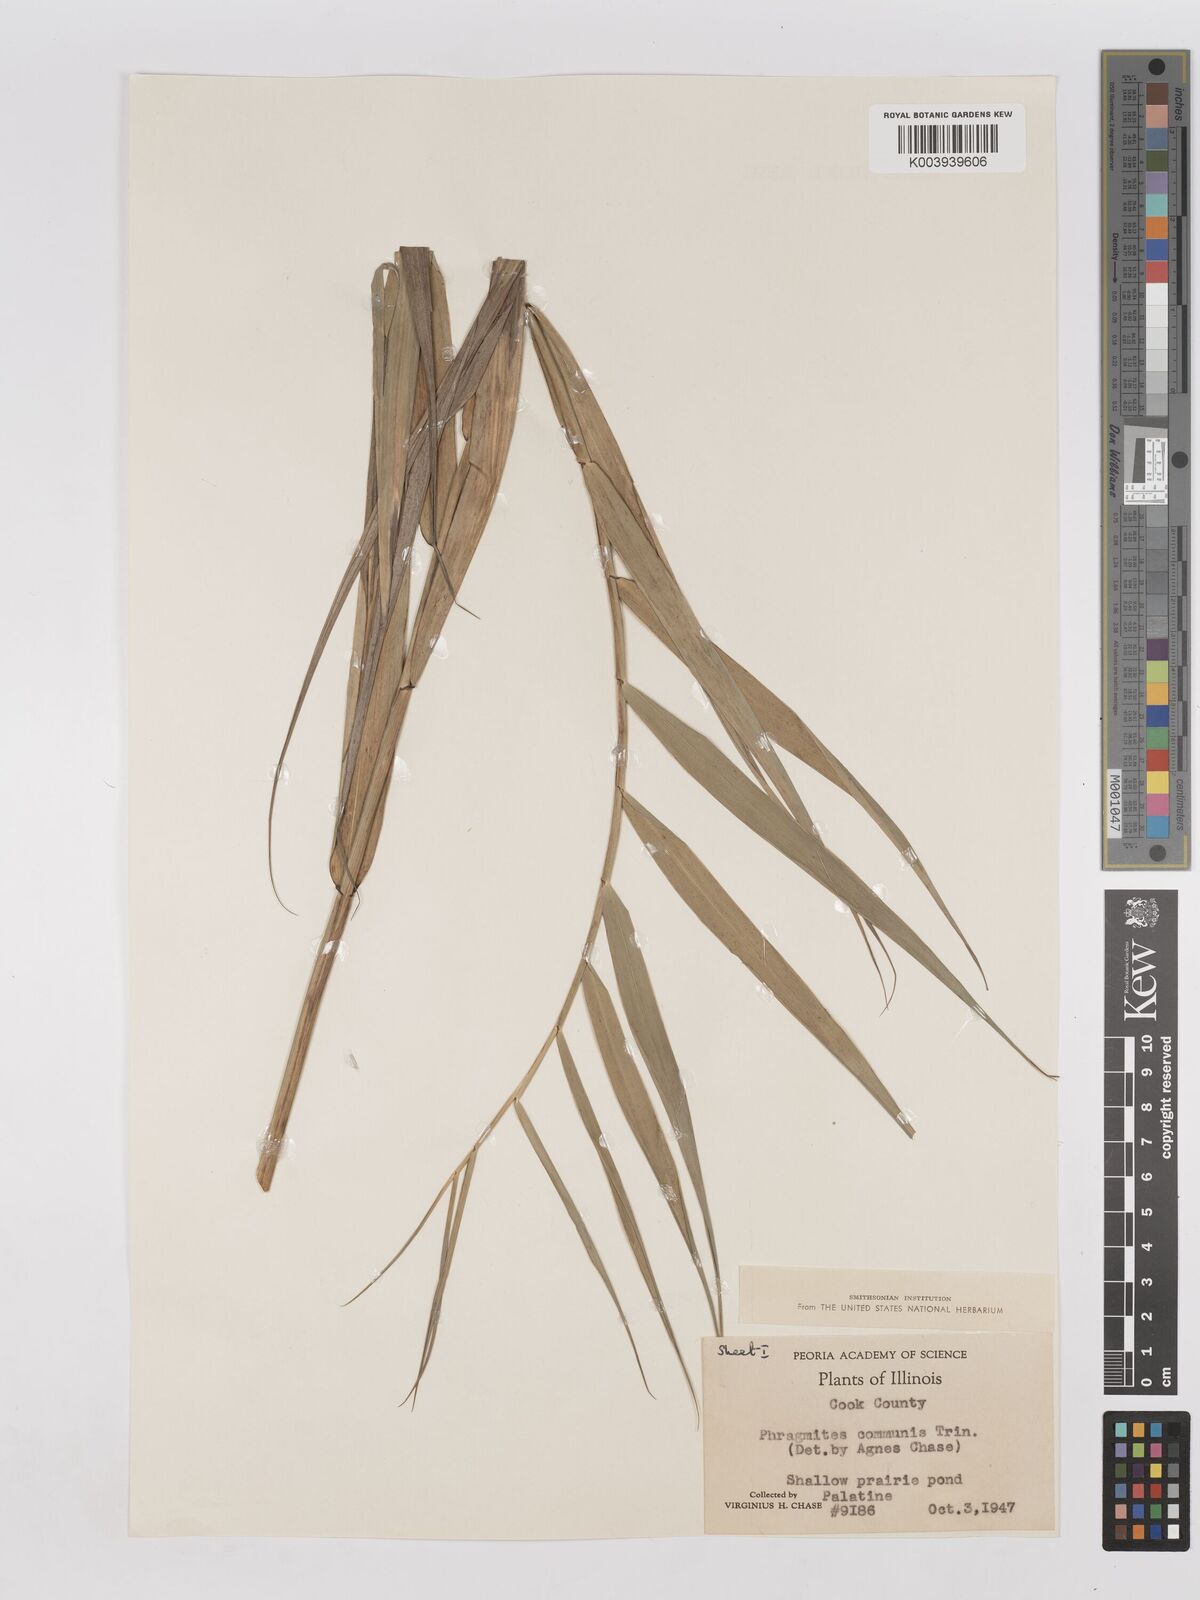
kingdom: Plantae
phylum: Tracheophyta
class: Liliopsida
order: Poales
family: Poaceae
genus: Phragmites
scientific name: Phragmites australis
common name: Common reed
